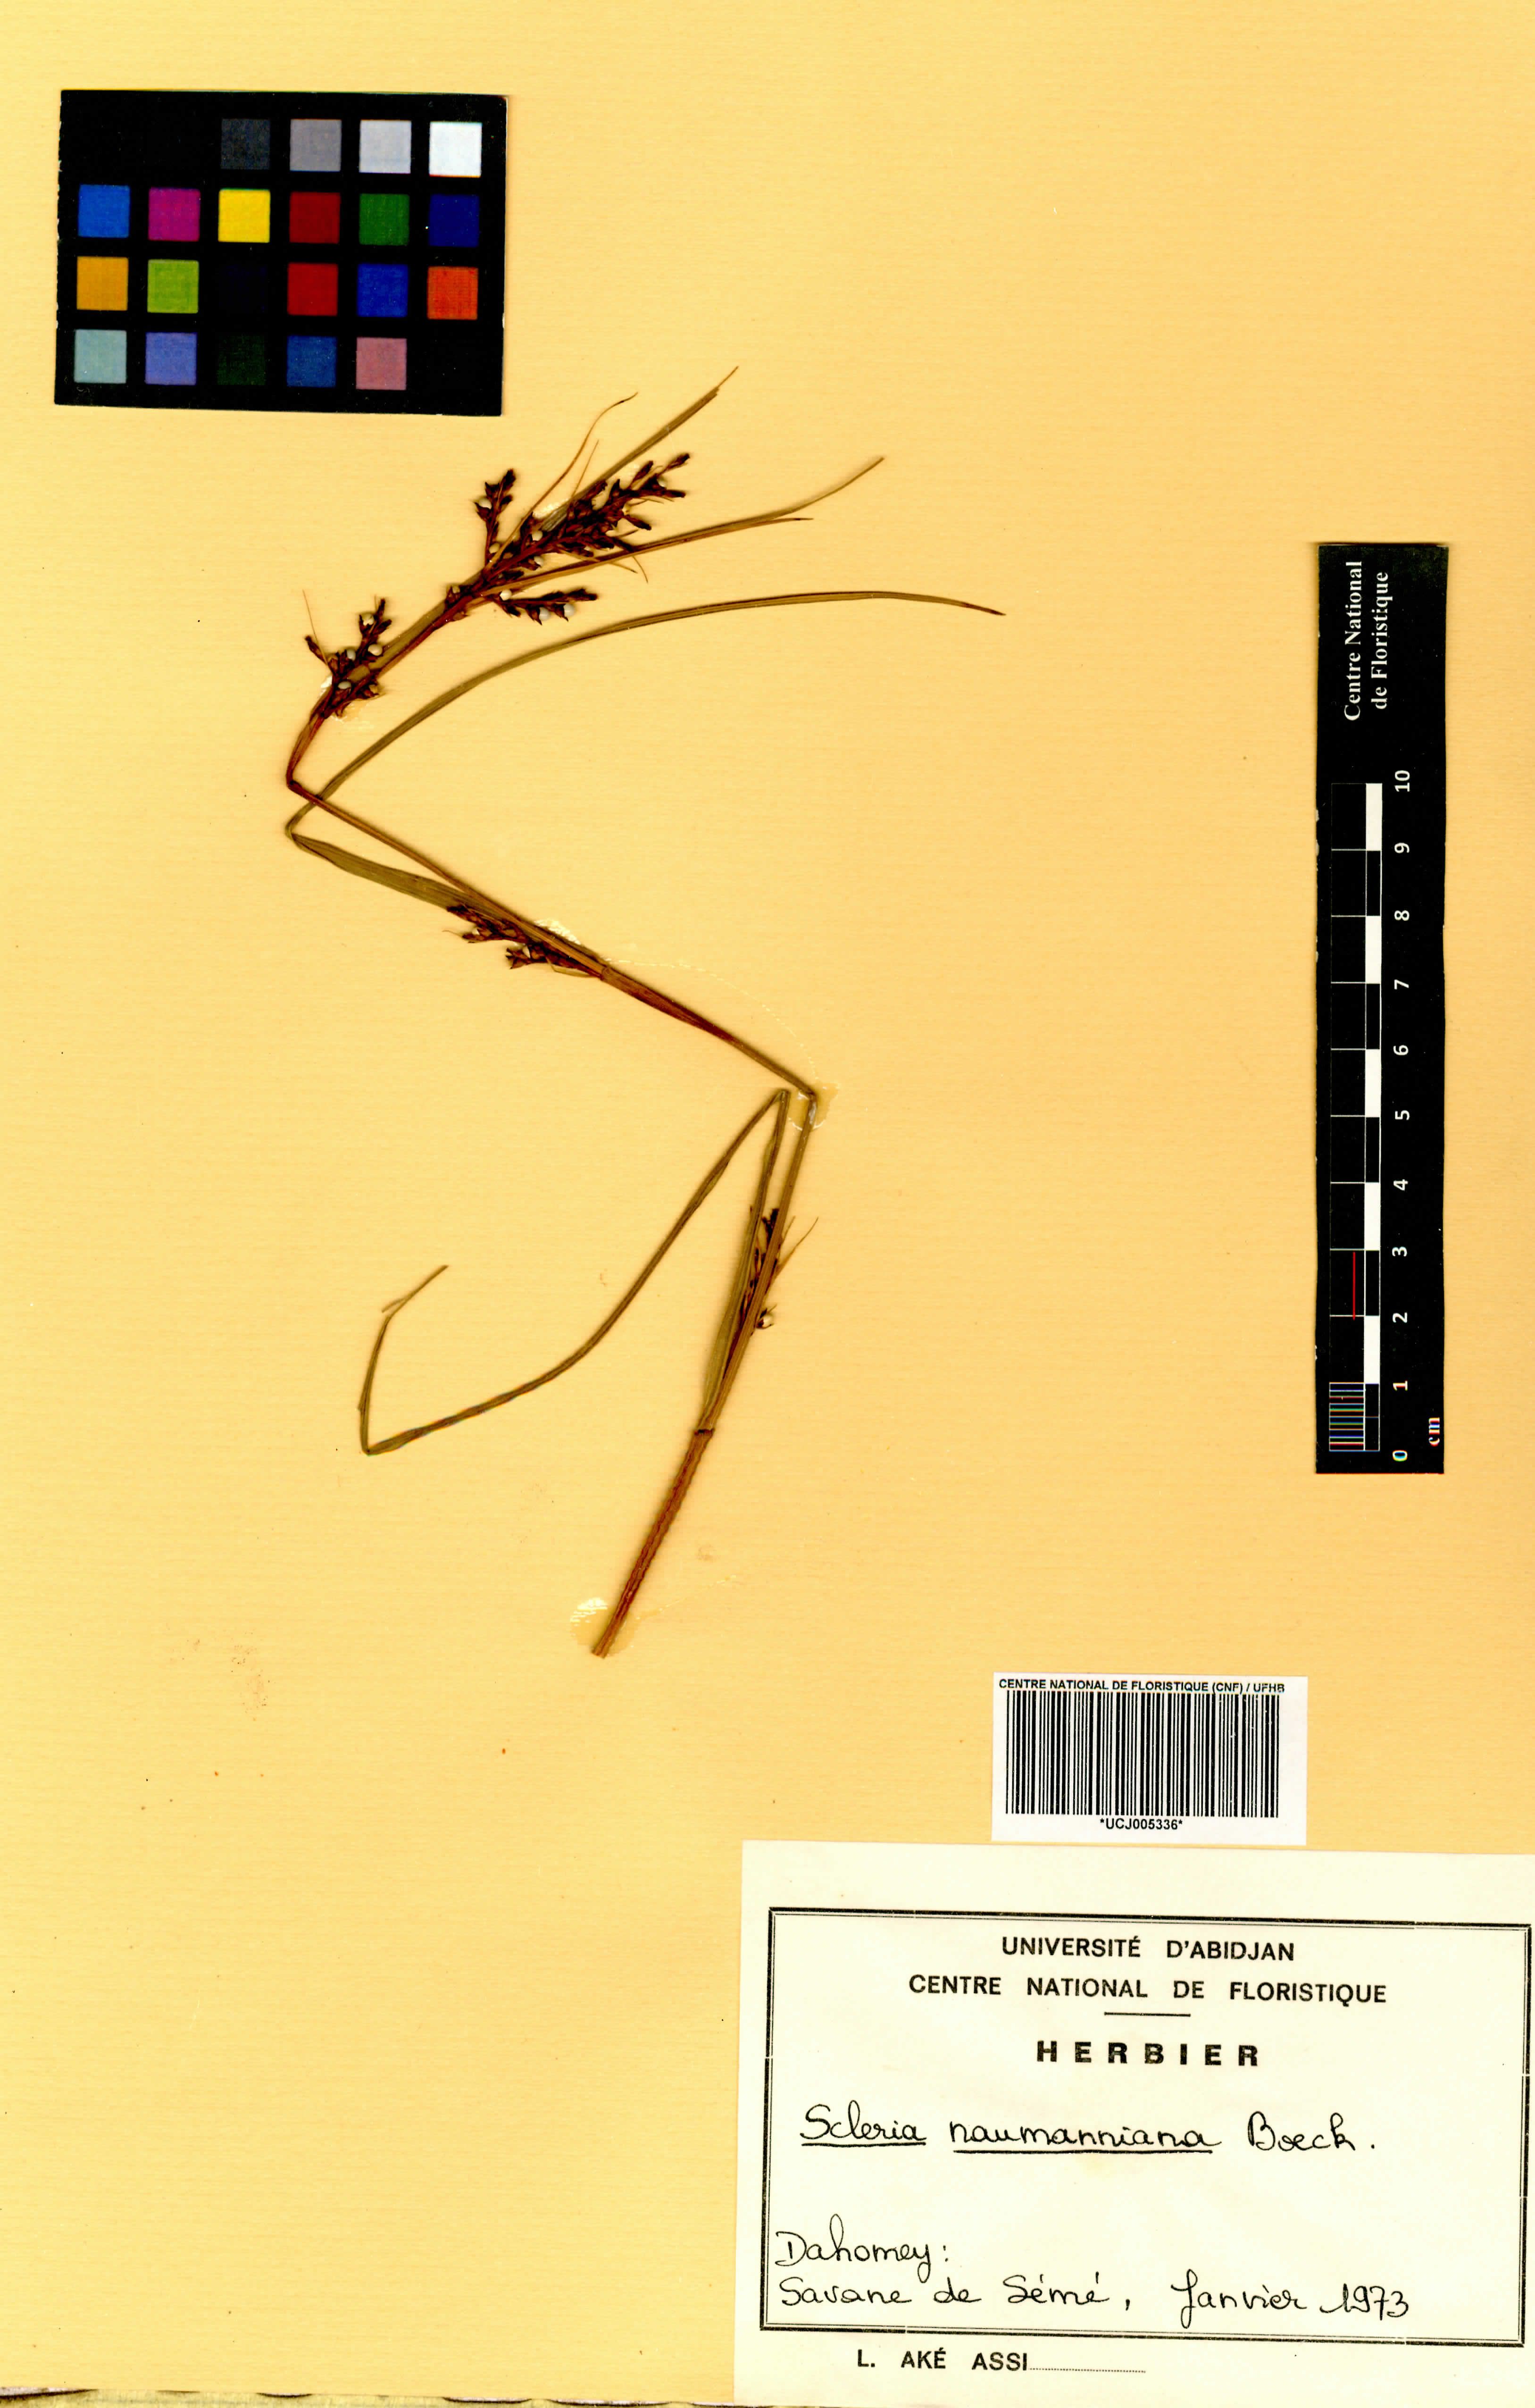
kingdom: Plantae
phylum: Tracheophyta
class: Liliopsida
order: Poales
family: Cyperaceae
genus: Scleria
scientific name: Scleria naumanniana
